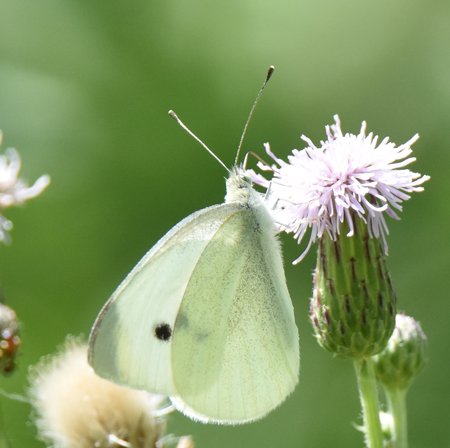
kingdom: Animalia
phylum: Arthropoda
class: Insecta
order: Lepidoptera
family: Pieridae
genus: Pieris
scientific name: Pieris rapae
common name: Cabbage White
